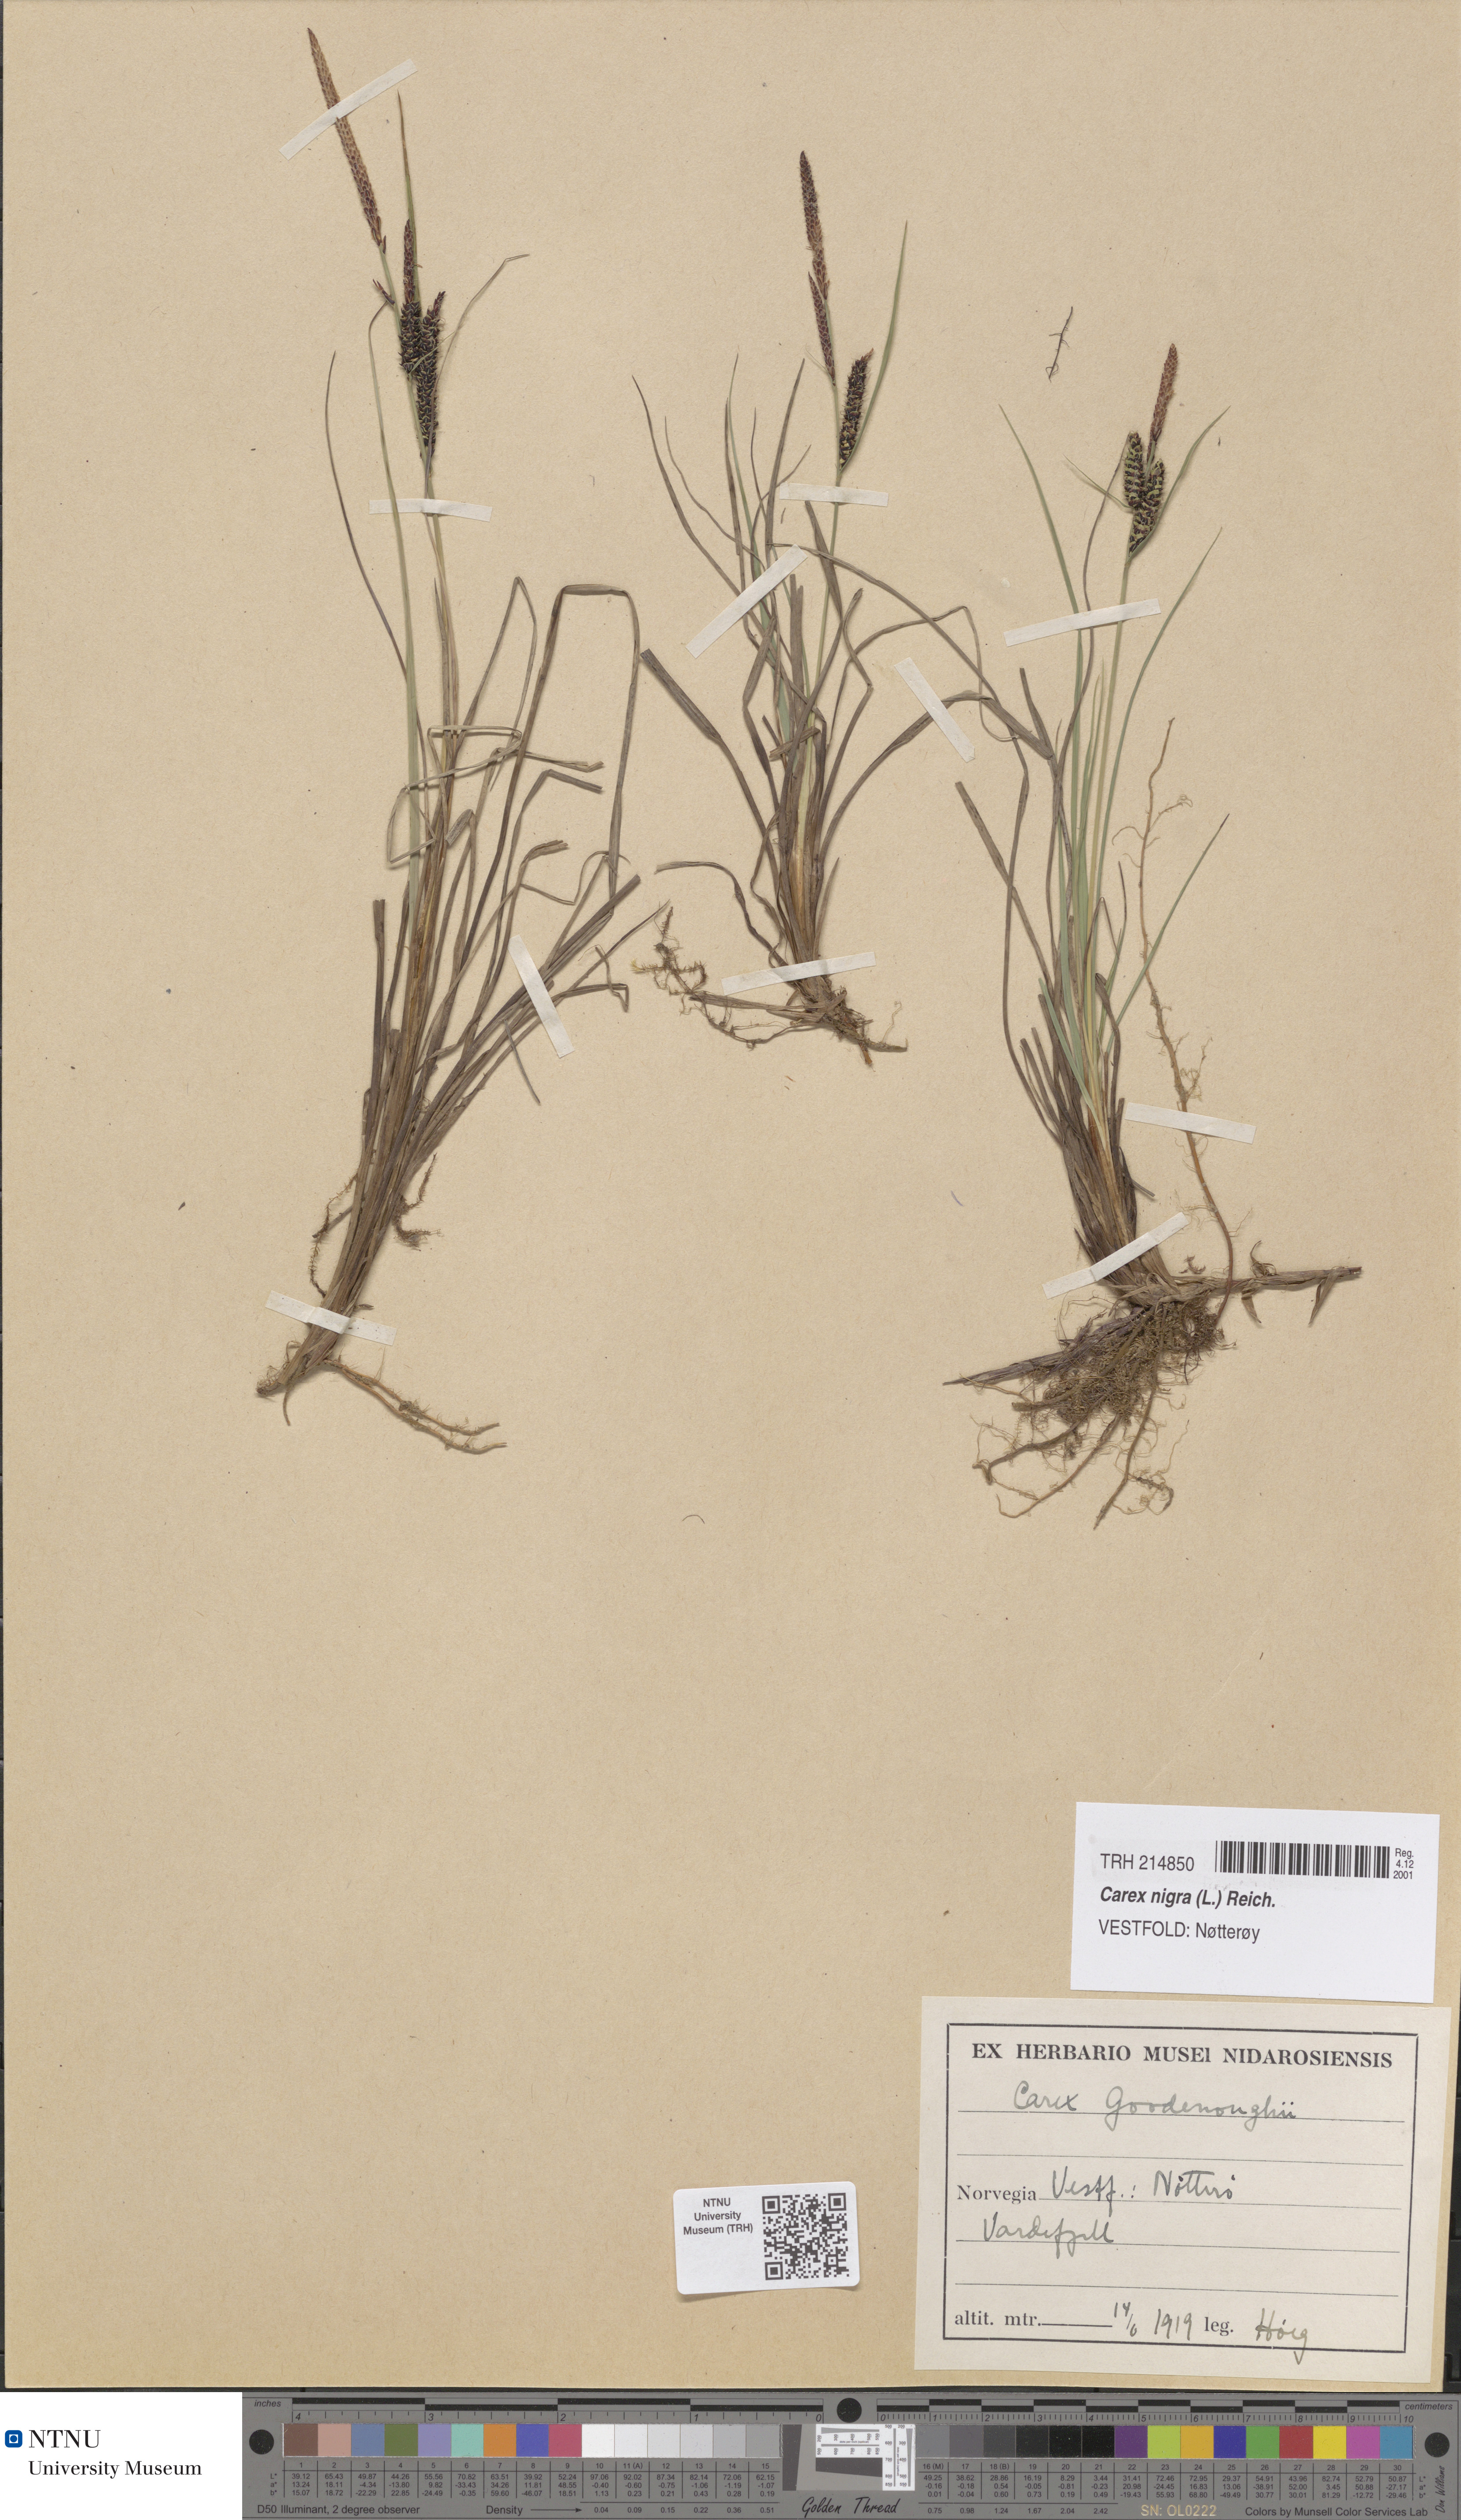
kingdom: Plantae
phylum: Tracheophyta
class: Liliopsida
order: Poales
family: Cyperaceae
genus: Carex
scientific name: Carex nigra
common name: Common sedge
